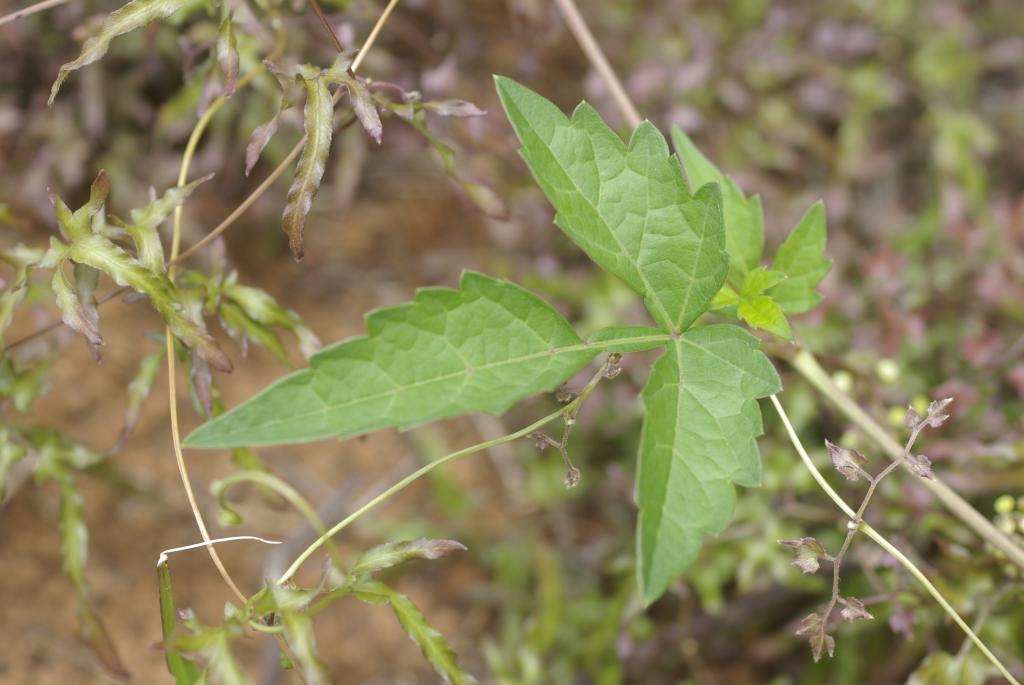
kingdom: Plantae
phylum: Tracheophyta
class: Magnoliopsida
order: Vitales
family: Vitaceae
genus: Ampelopsis
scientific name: Ampelopsis japonica
